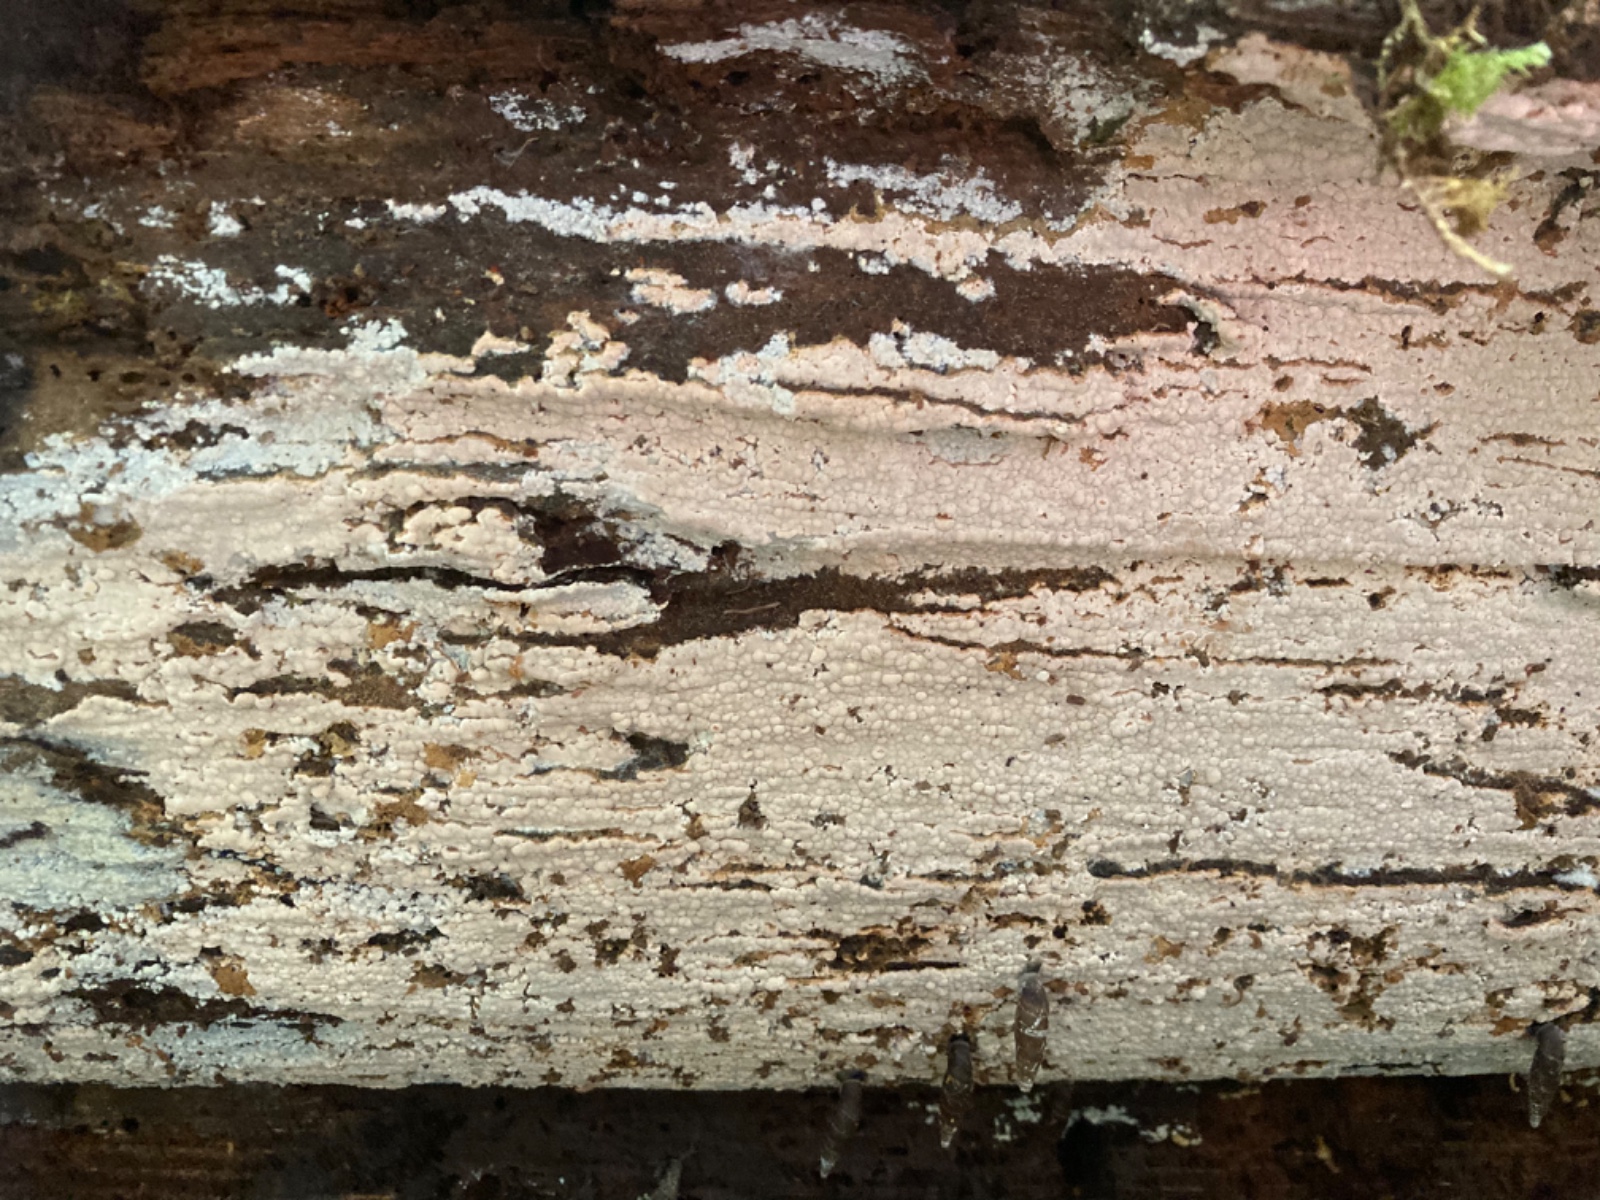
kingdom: Fungi
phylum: Basidiomycota
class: Agaricomycetes
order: Russulales
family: Peniophoraceae
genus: Gloiothele
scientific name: Gloiothele lactescens
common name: bitter olieskind
